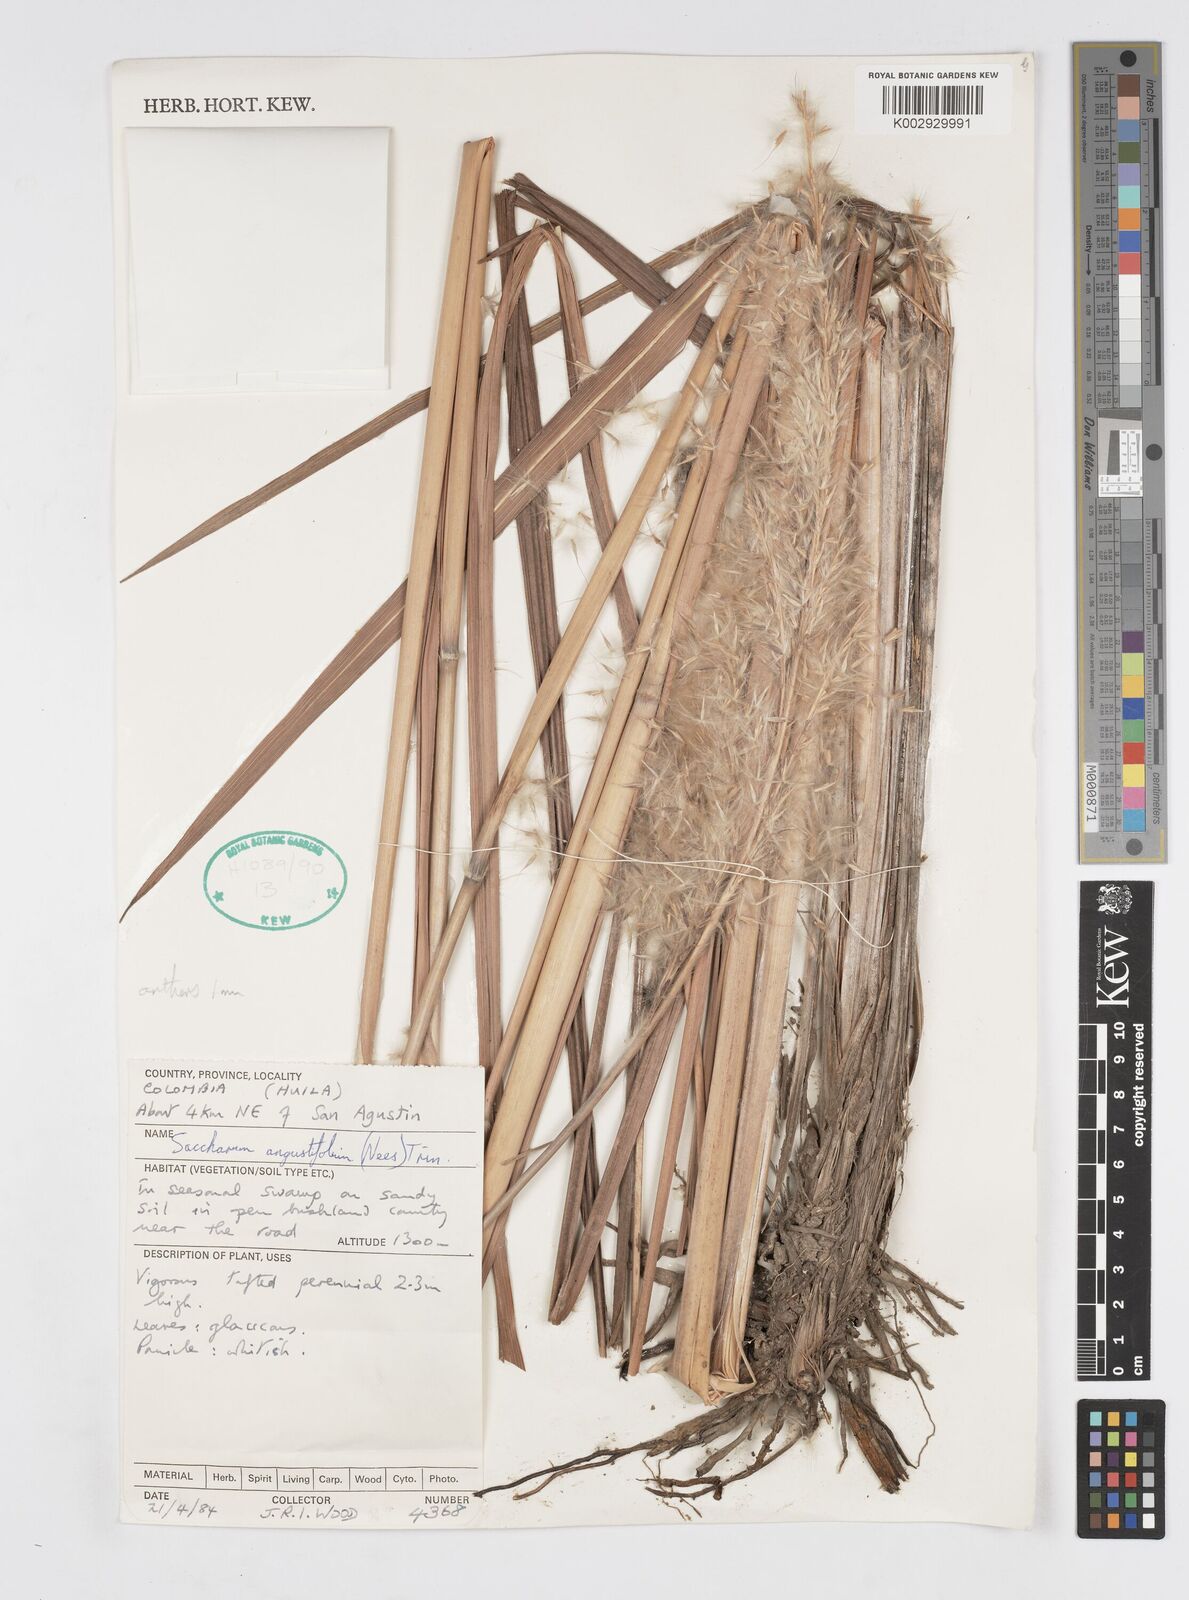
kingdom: Plantae
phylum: Tracheophyta
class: Liliopsida
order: Poales
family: Poaceae
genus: Saccharum
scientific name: Saccharum angustifolium
